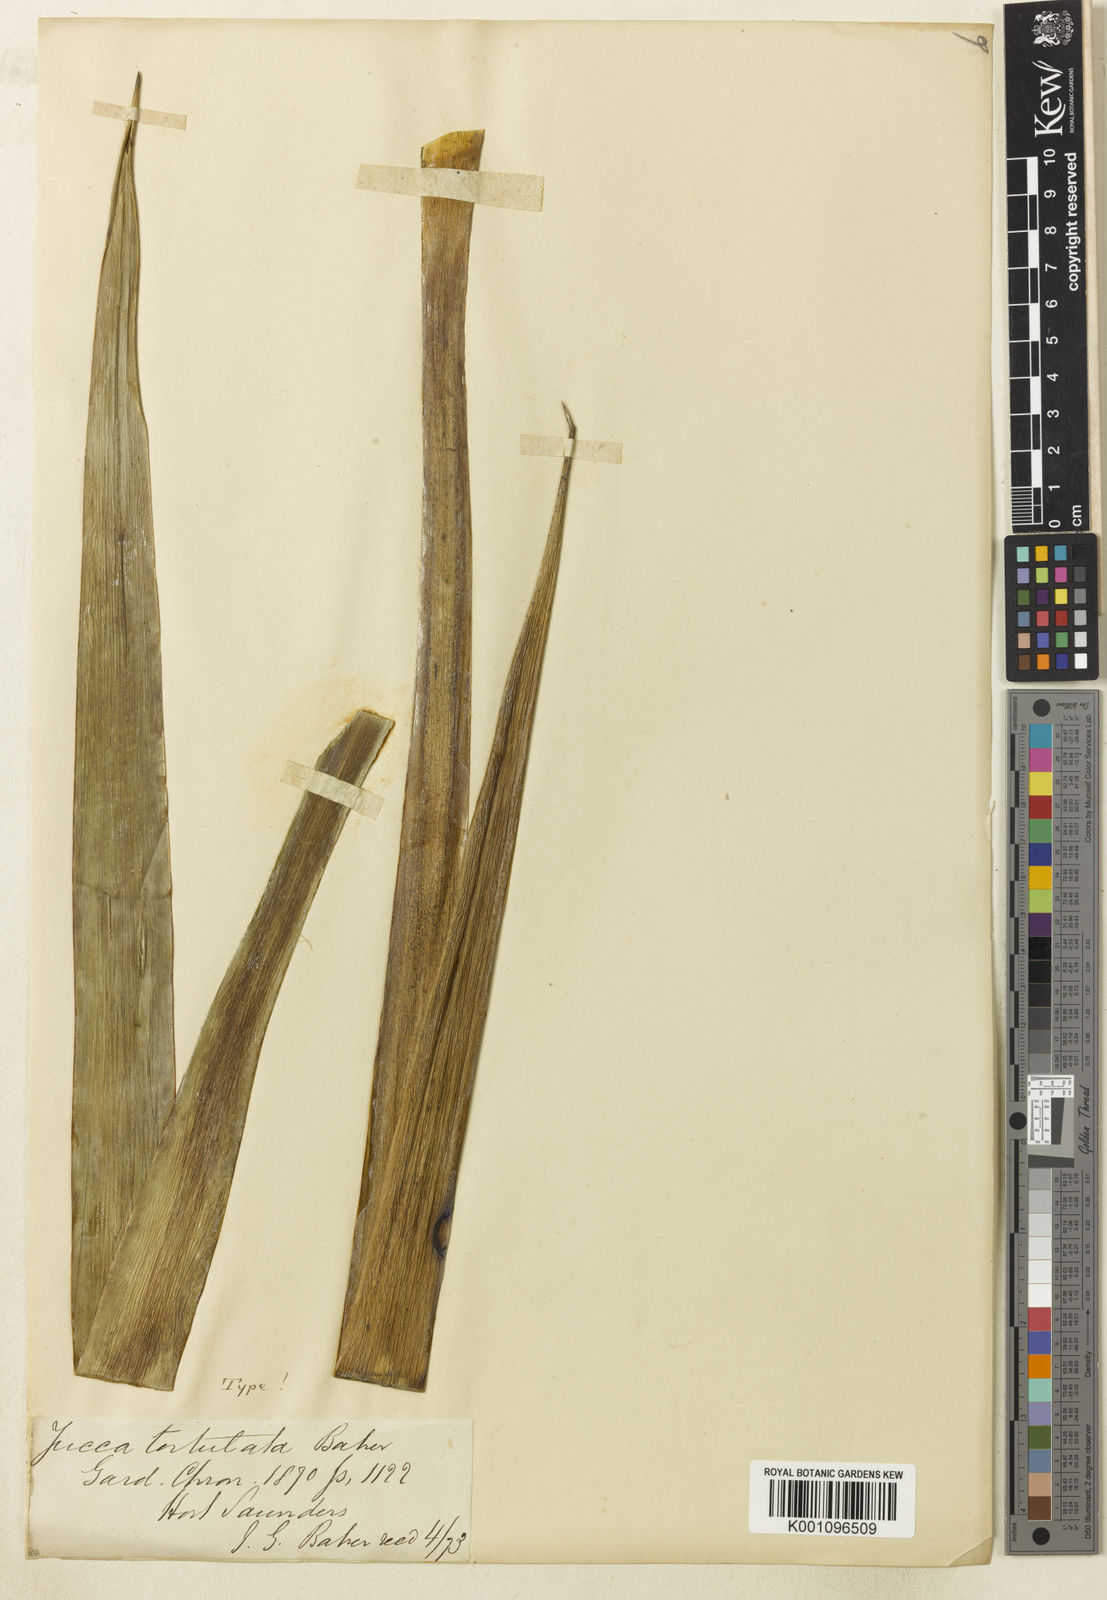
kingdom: Plantae
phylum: Tracheophyta
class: Liliopsida
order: Asparagales
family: Asparagaceae
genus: Yucca
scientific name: Yucca gloriosa
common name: Spanish-dagger
